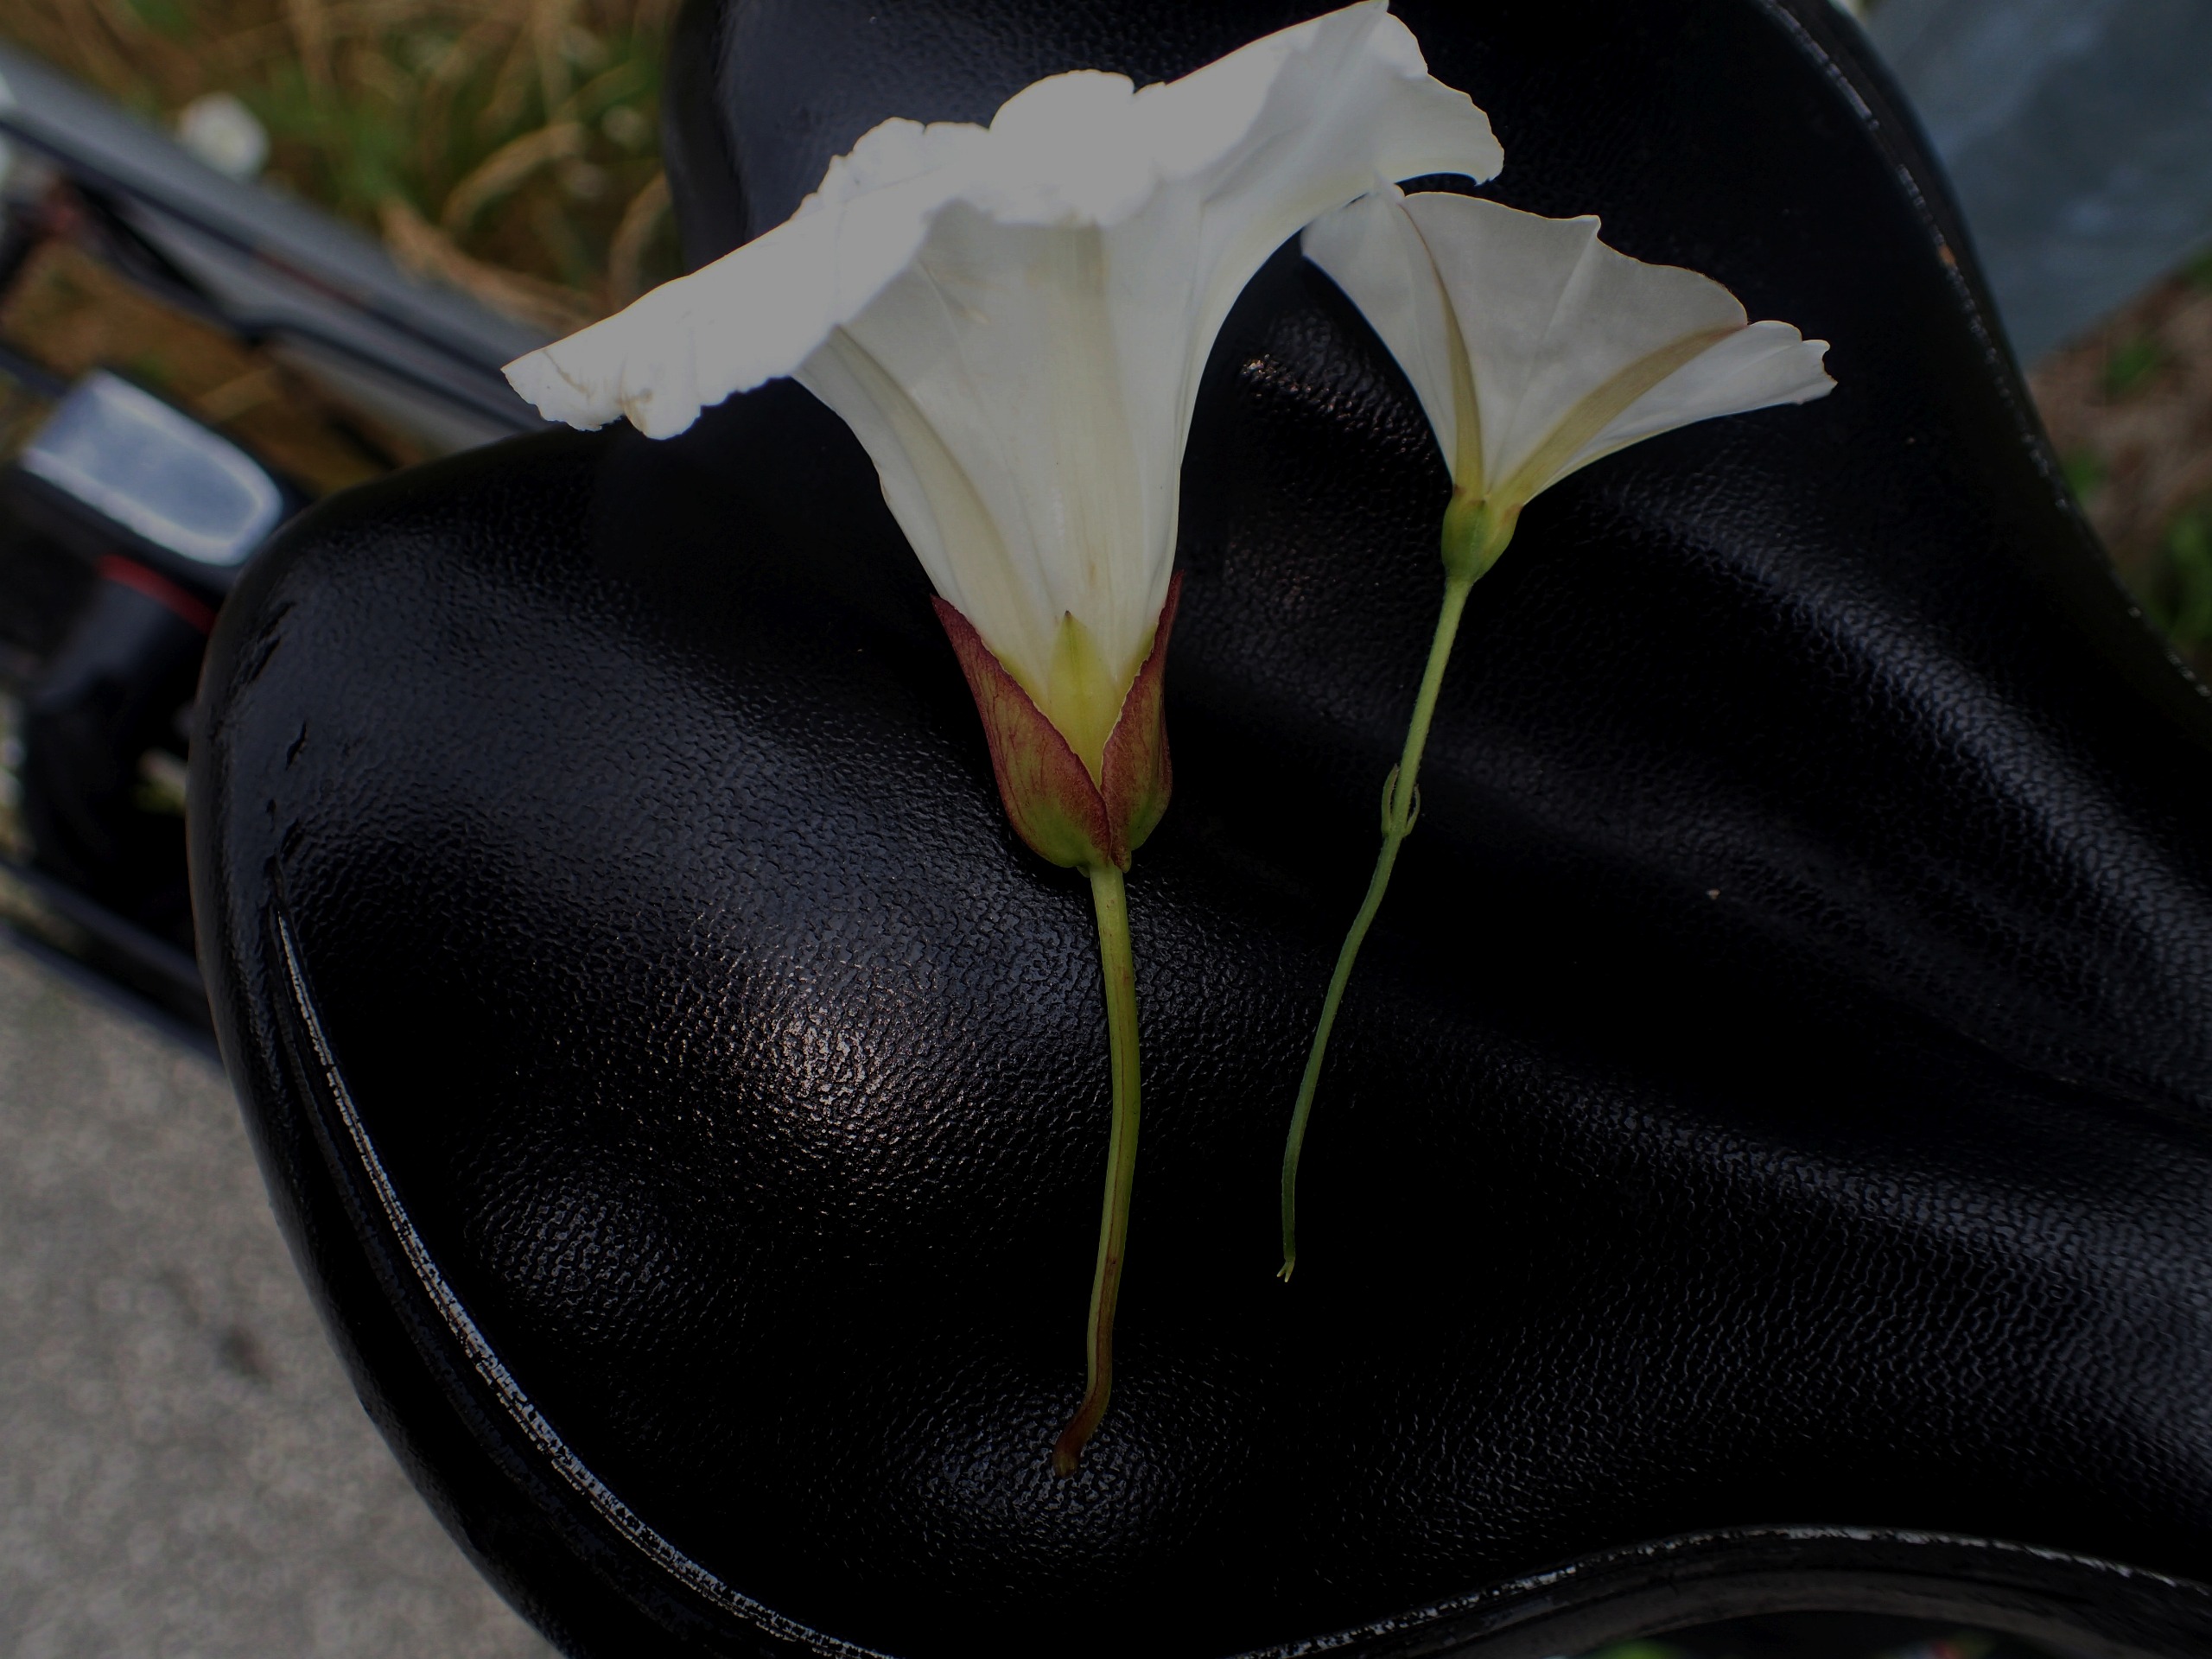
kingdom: Plantae
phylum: Tracheophyta
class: Magnoliopsida
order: Solanales
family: Convolvulaceae
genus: Convolvulus
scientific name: Convolvulus arvensis
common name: Ager-snerle
